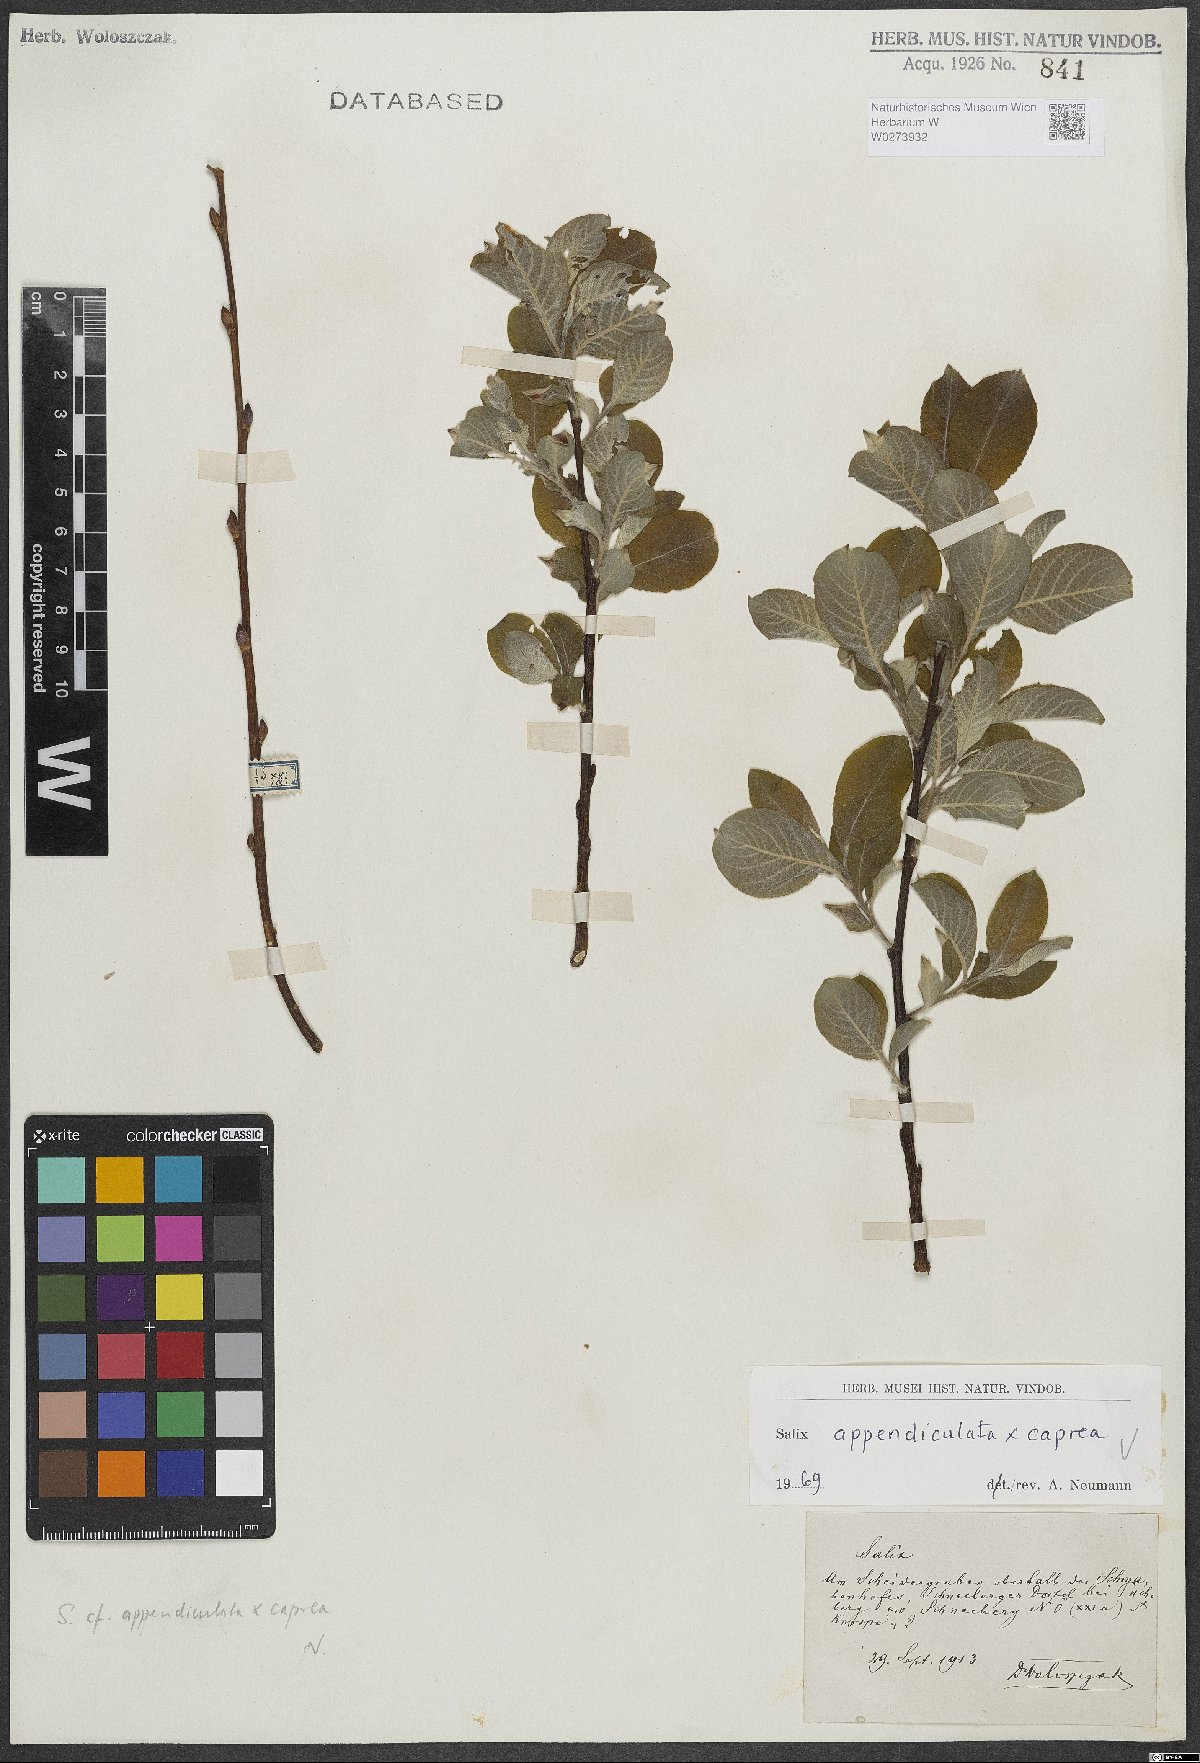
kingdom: Plantae
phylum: Tracheophyta
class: Magnoliopsida
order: Malpighiales
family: Salicaceae
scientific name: Salicaceae
